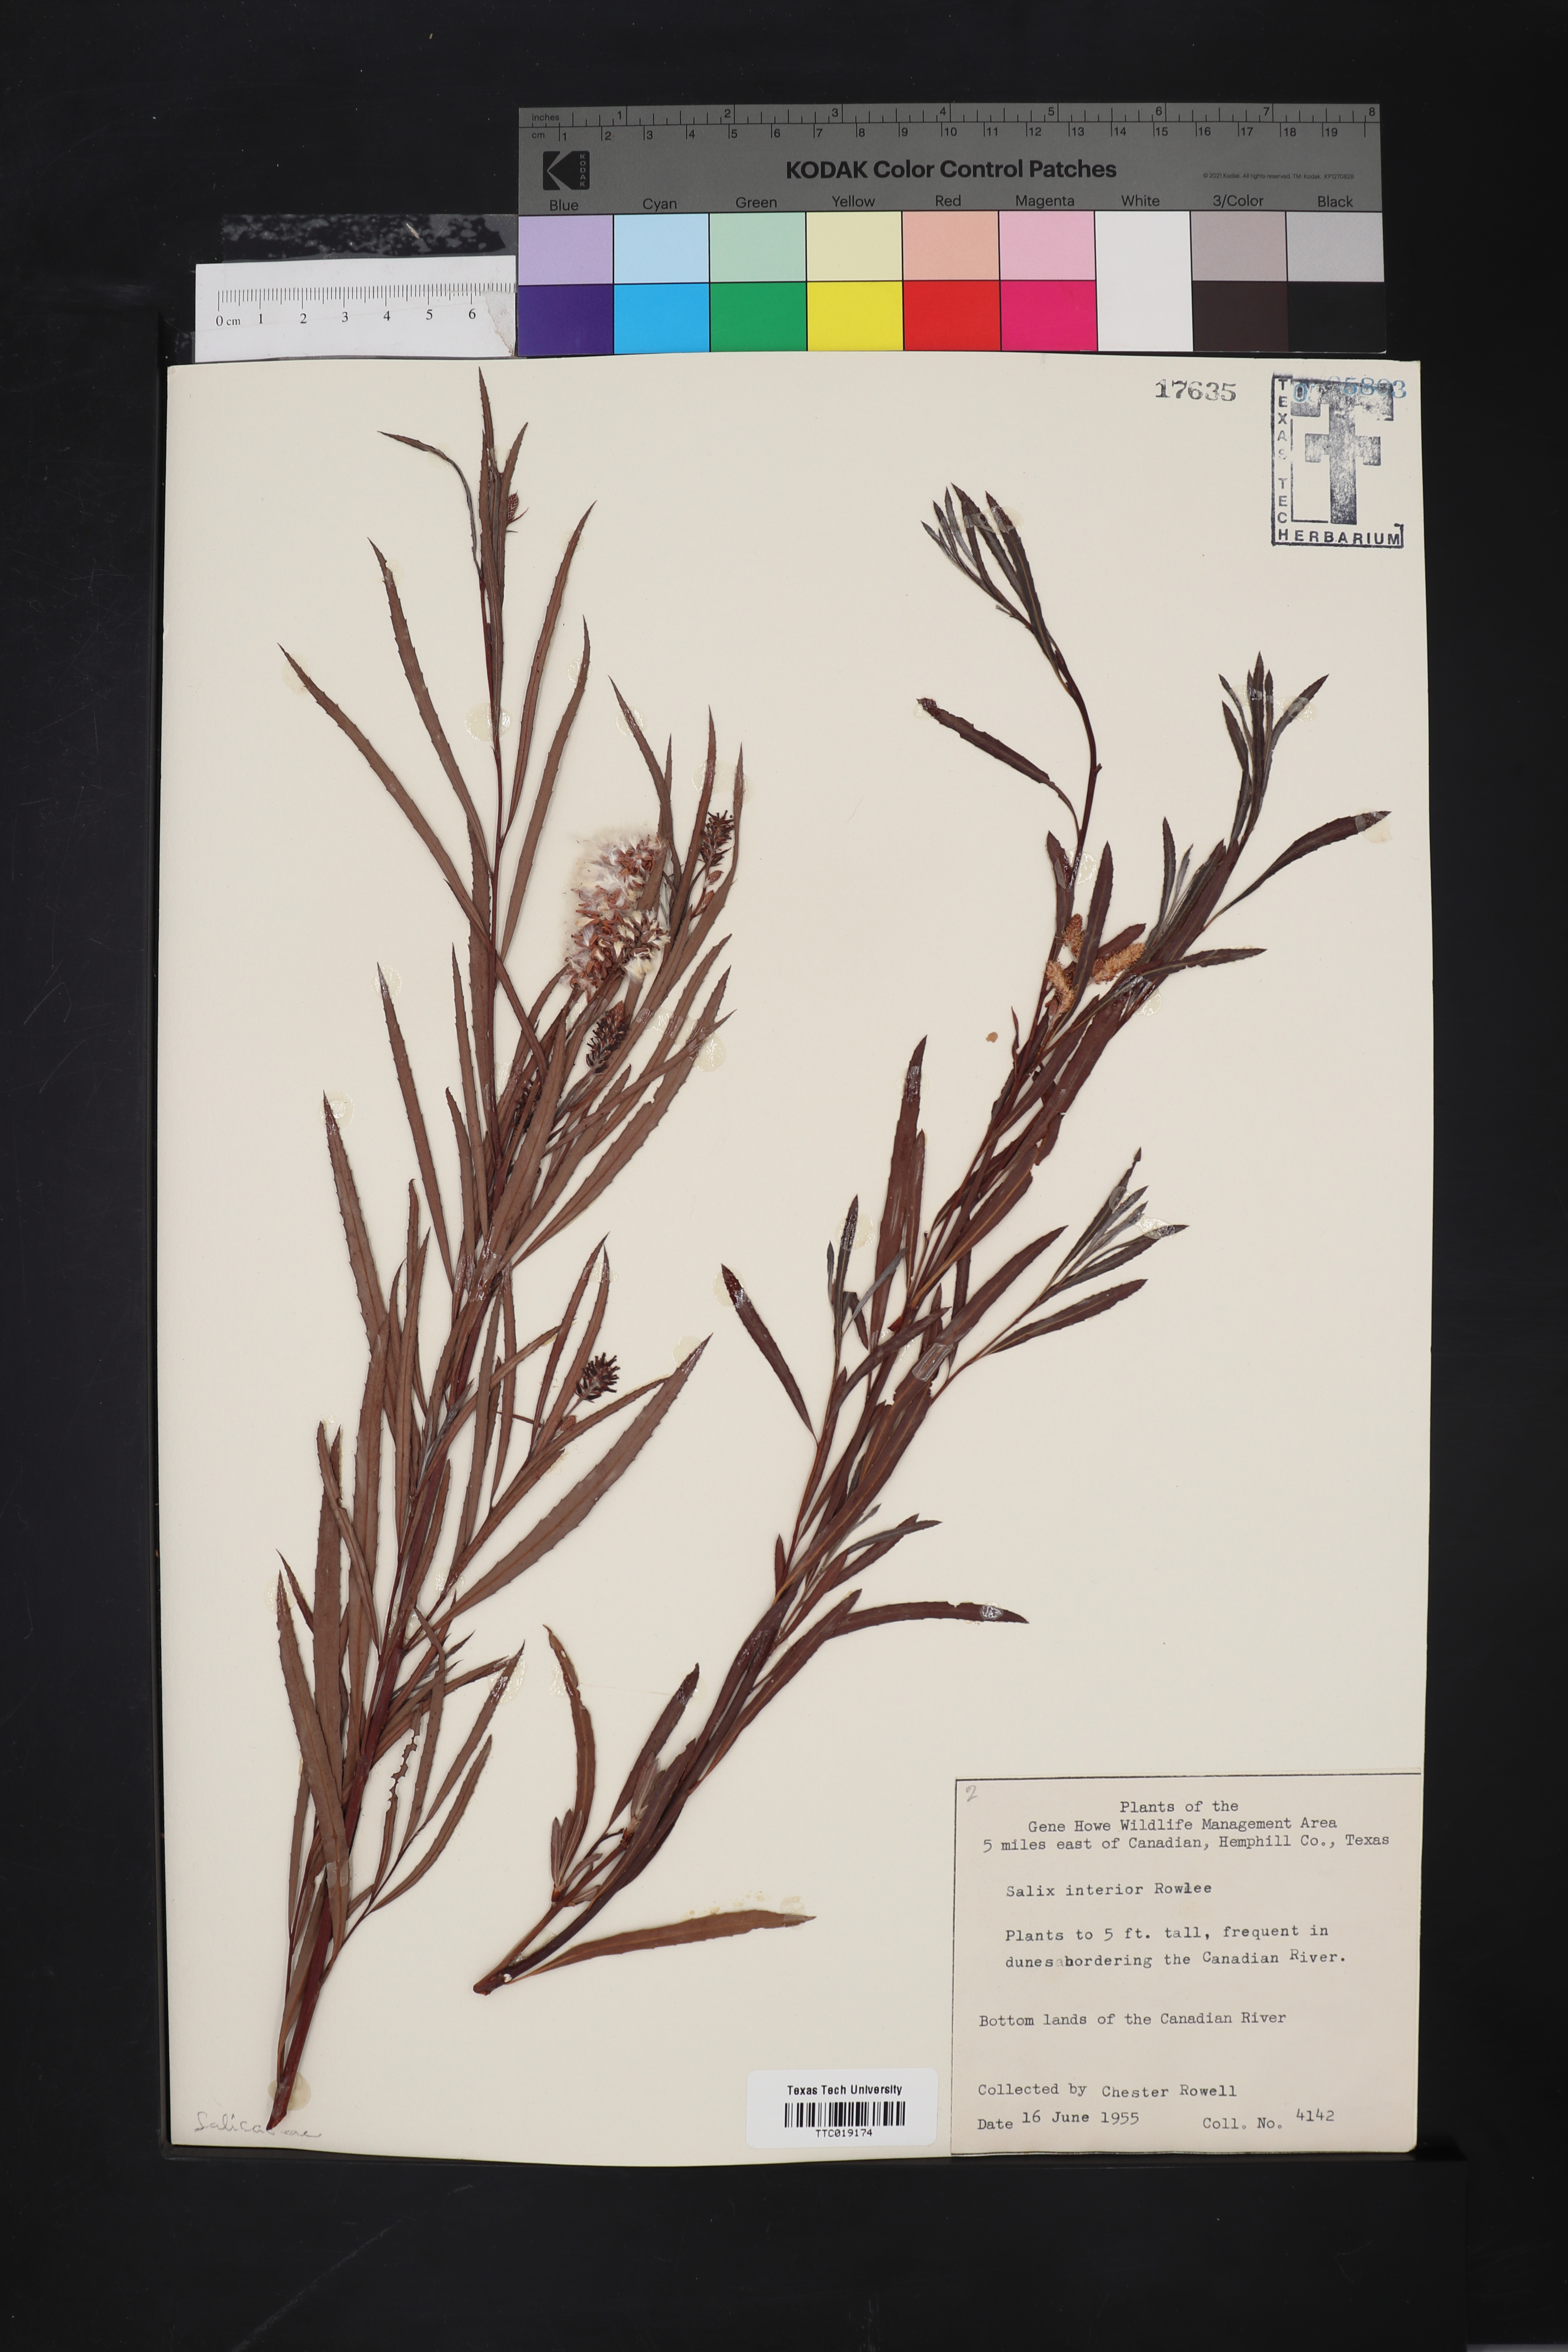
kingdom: Plantae
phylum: Tracheophyta
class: Magnoliopsida
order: Malpighiales
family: Salicaceae
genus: Salix
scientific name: Salix interior
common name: Sandbar willow
